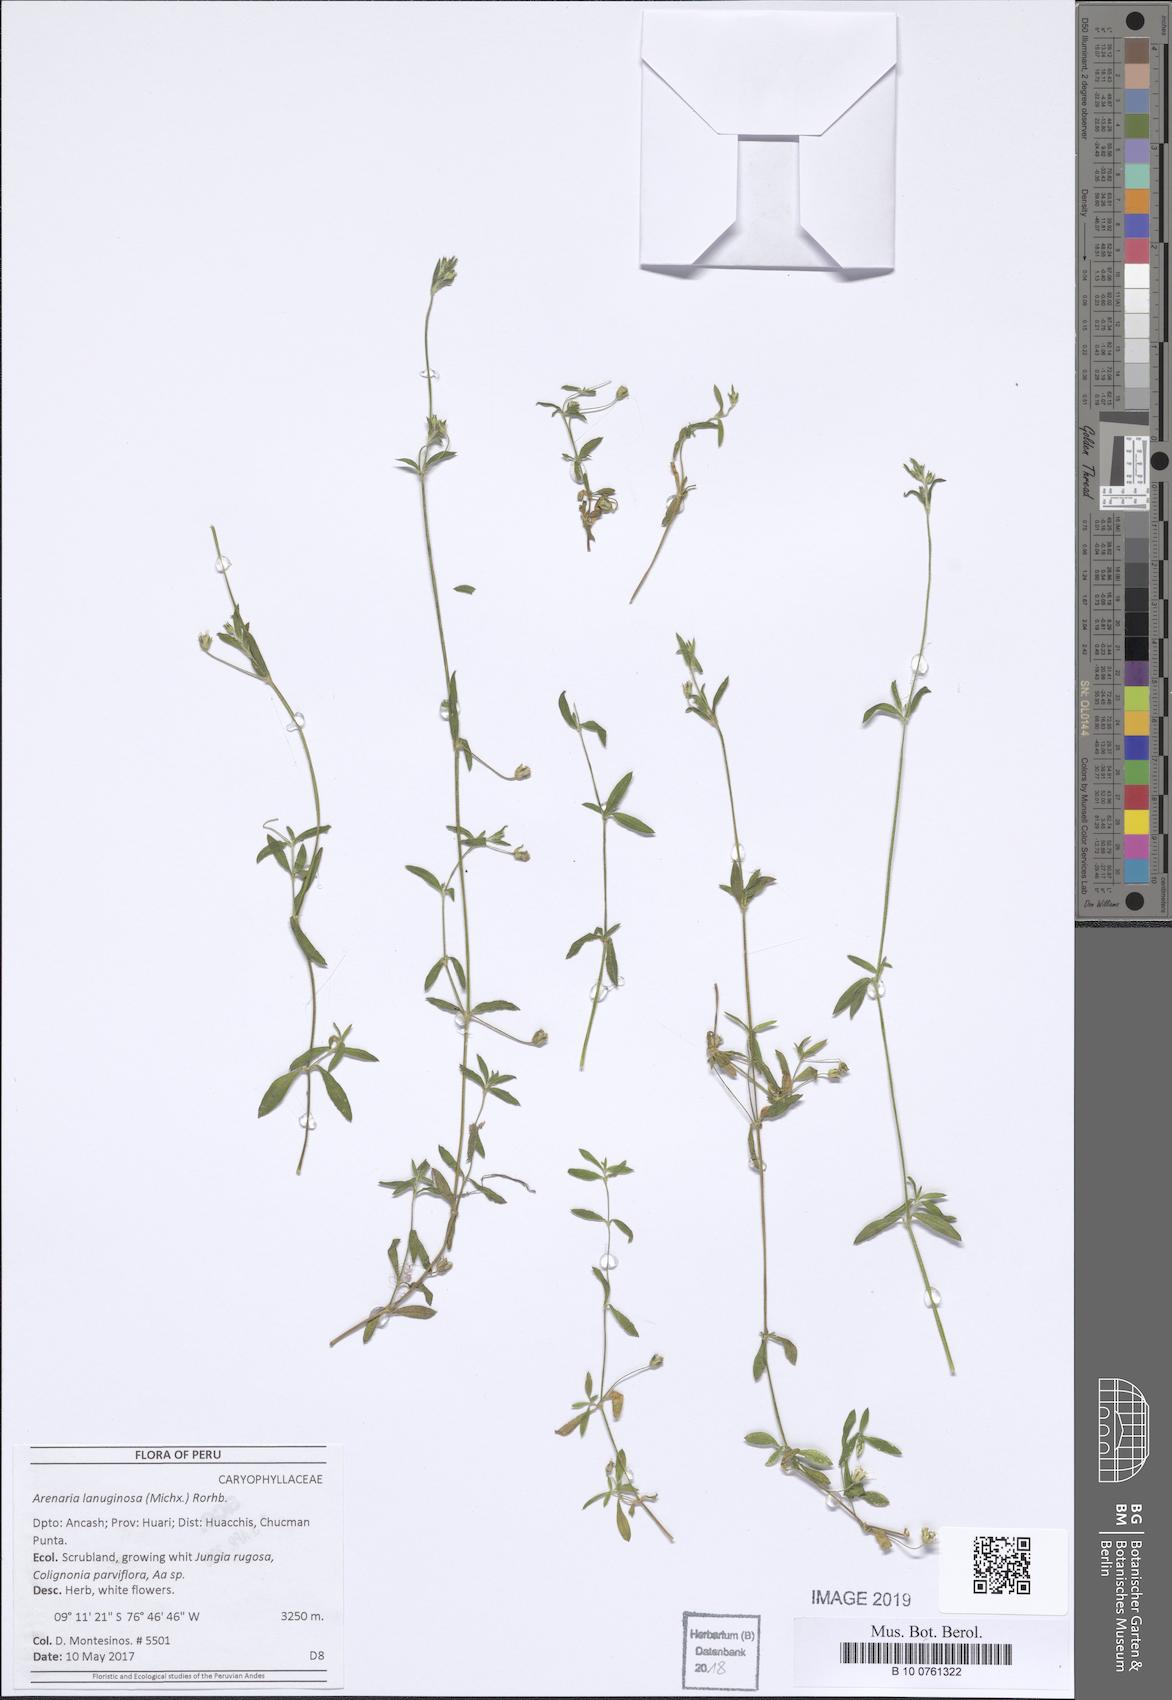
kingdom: Plantae
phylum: Tracheophyta
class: Magnoliopsida
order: Caryophyllales
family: Caryophyllaceae
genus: Arenaria
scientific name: Arenaria lanuginosa
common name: Spread sandwort
